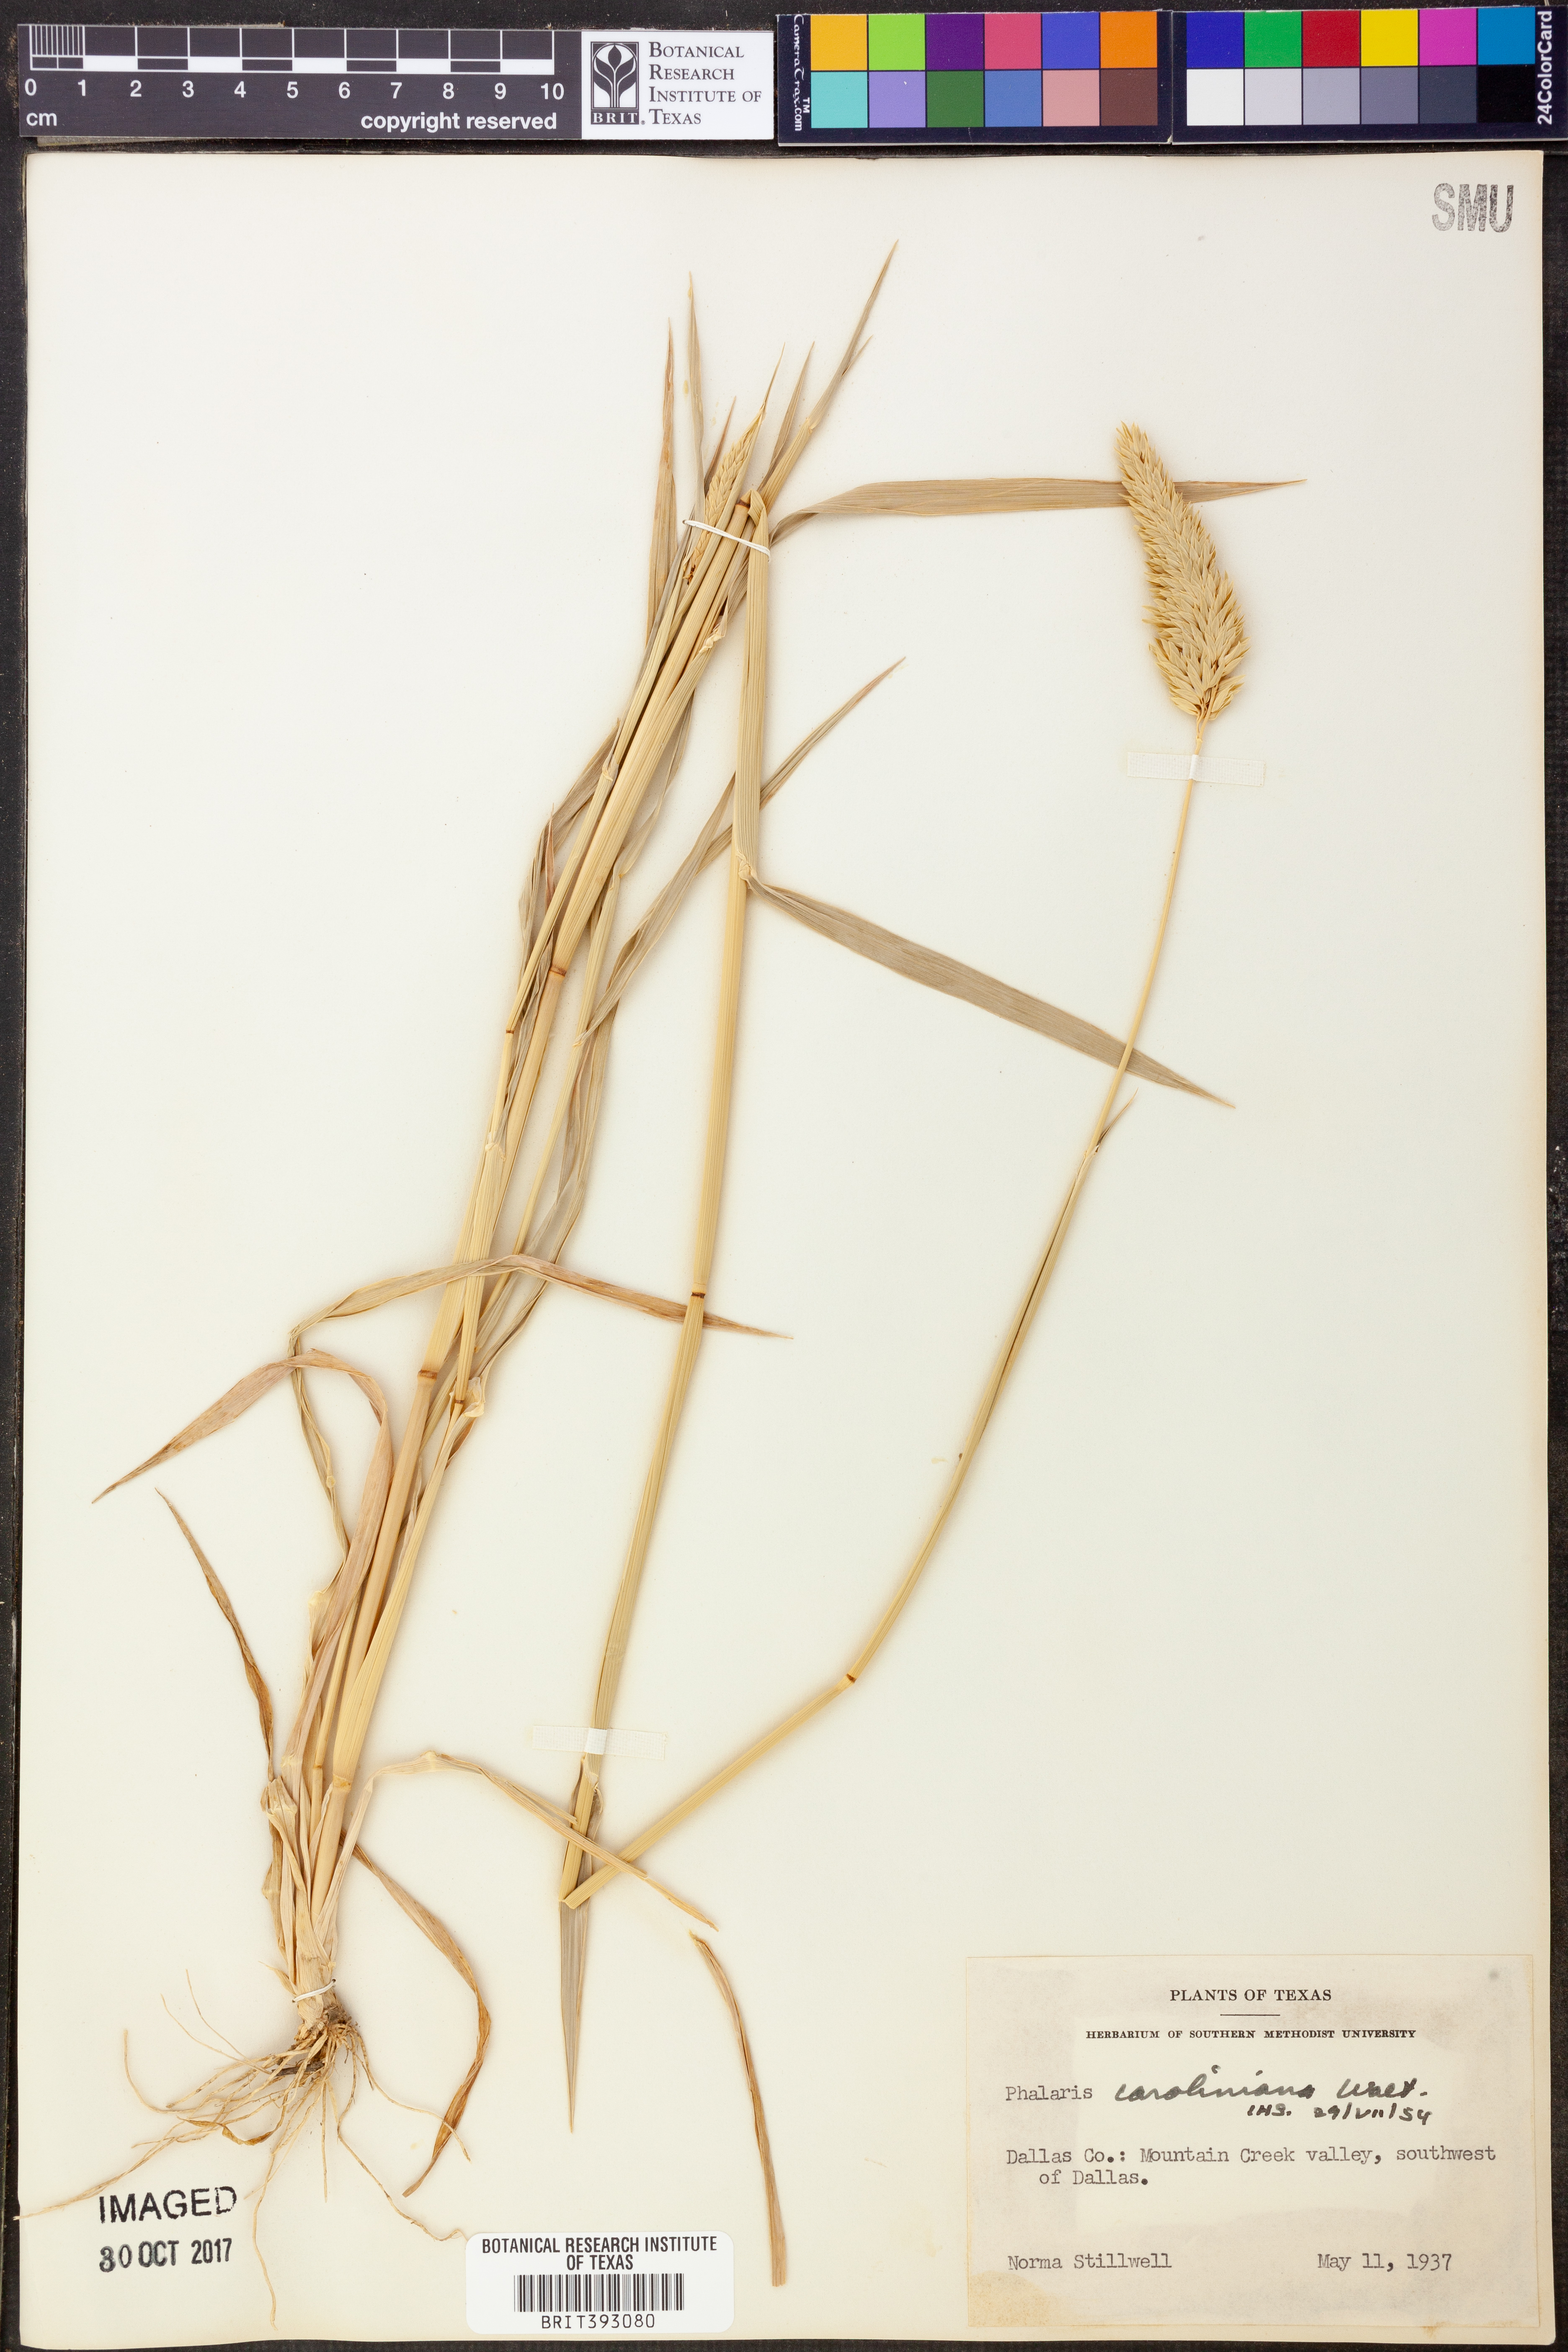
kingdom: Plantae
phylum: Tracheophyta
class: Liliopsida
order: Poales
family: Poaceae
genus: Phalaris
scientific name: Phalaris caroliniana
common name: May grass
